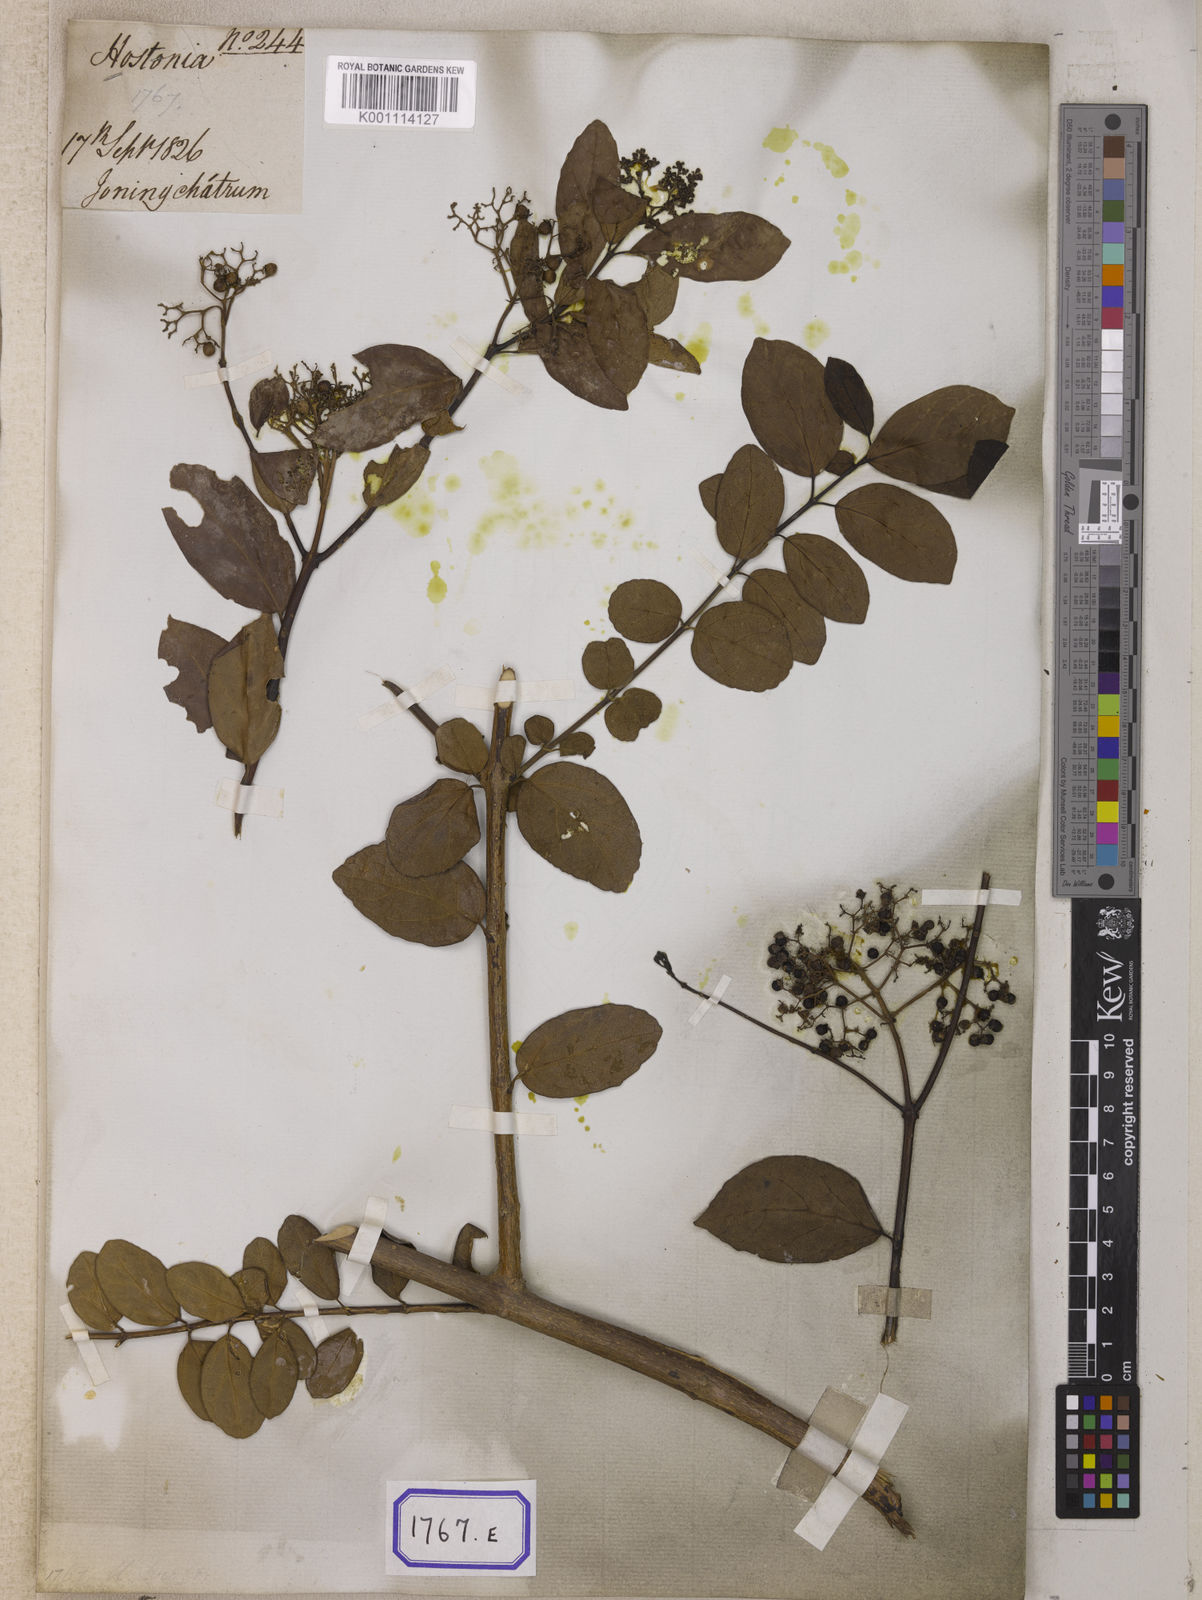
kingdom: Plantae
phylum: Tracheophyta
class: Magnoliopsida
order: Lamiales
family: Lamiaceae
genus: Premna
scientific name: Premna serratifolia
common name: Bastard guelder
